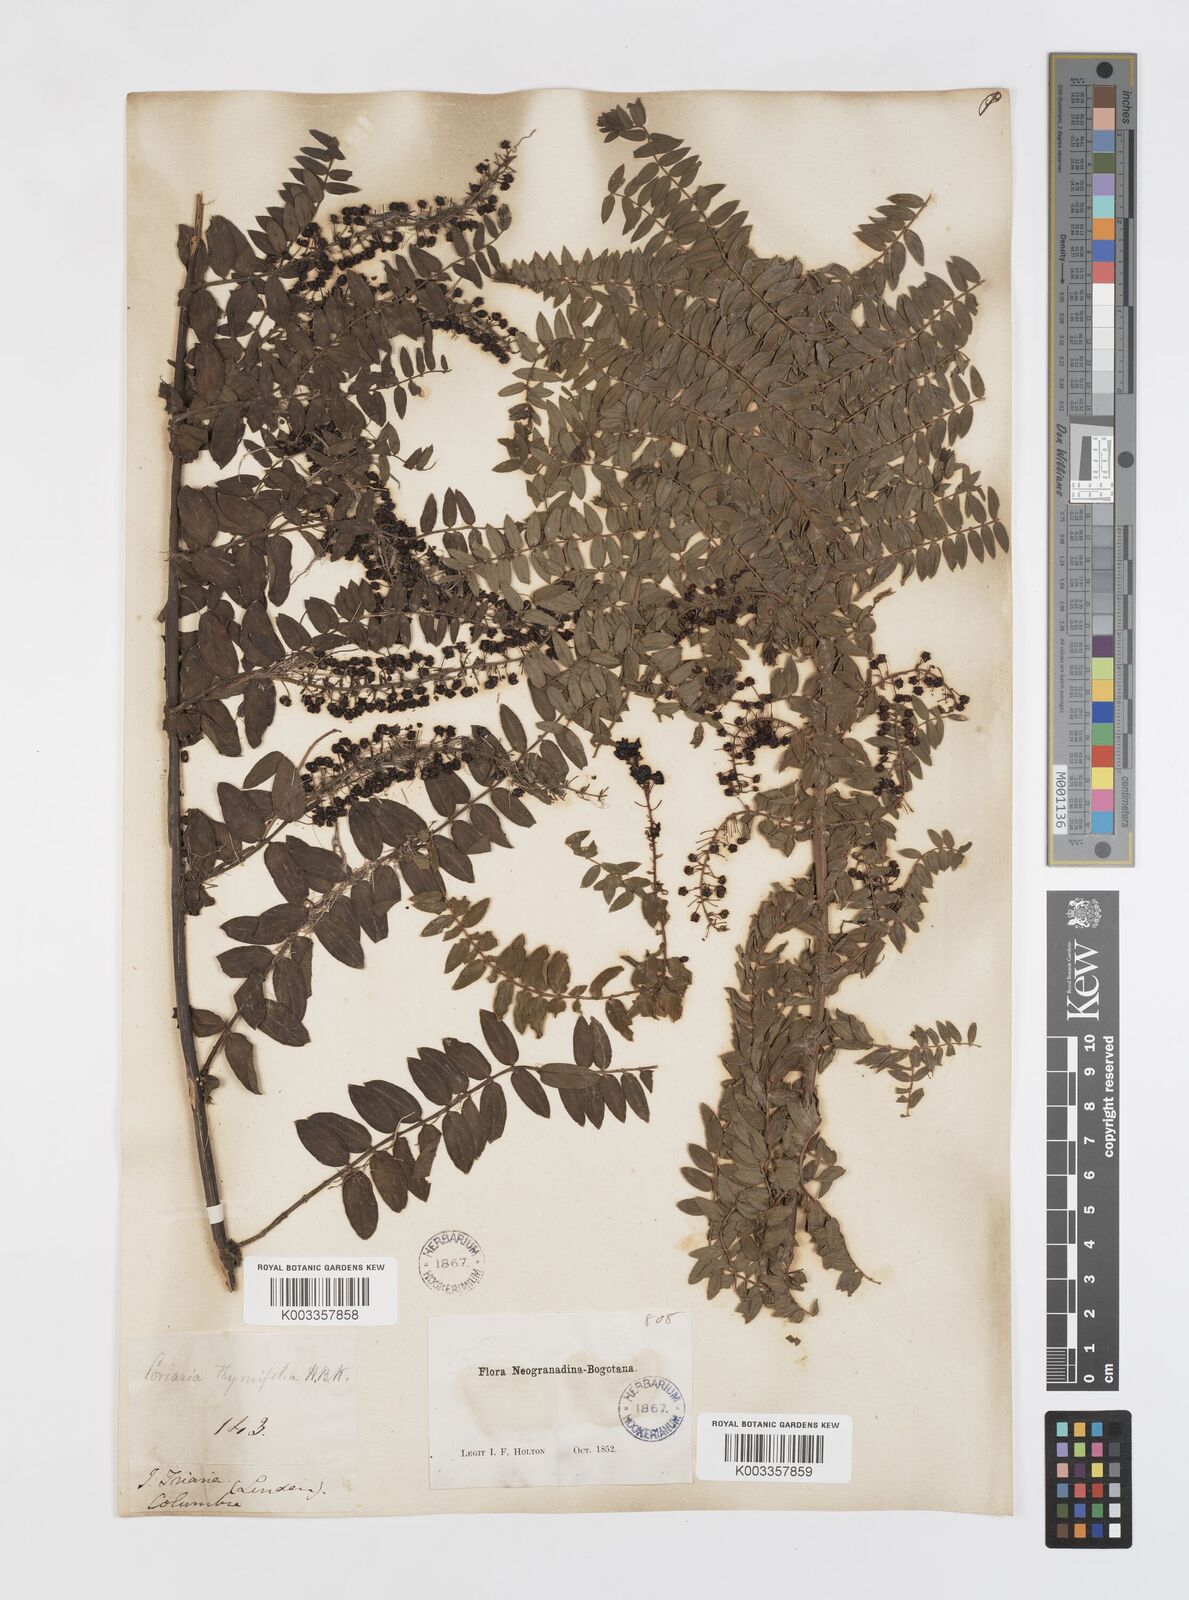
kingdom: Plantae
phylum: Tracheophyta
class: Magnoliopsida
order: Cucurbitales
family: Coriariaceae
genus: Coriaria
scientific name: Coriaria microphylla
